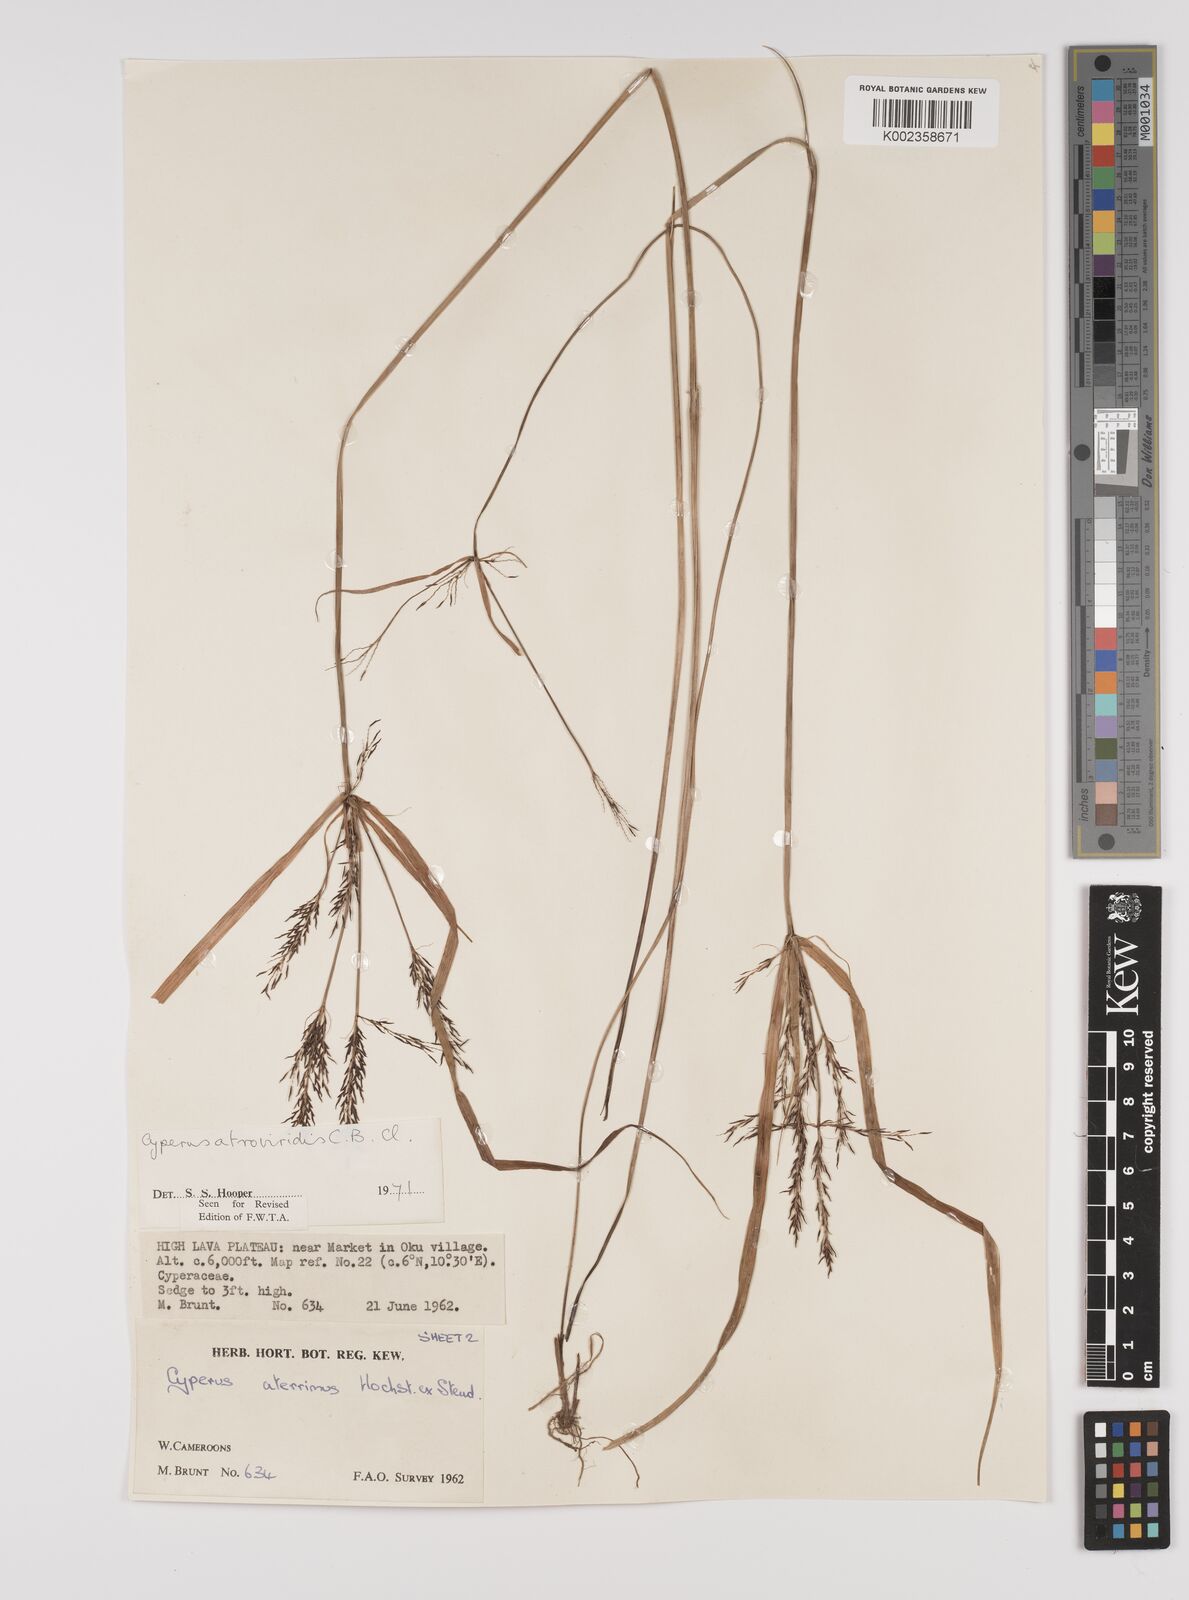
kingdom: Plantae
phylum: Tracheophyta
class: Liliopsida
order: Poales
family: Cyperaceae
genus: Cyperus
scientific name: Cyperus aterrimus
